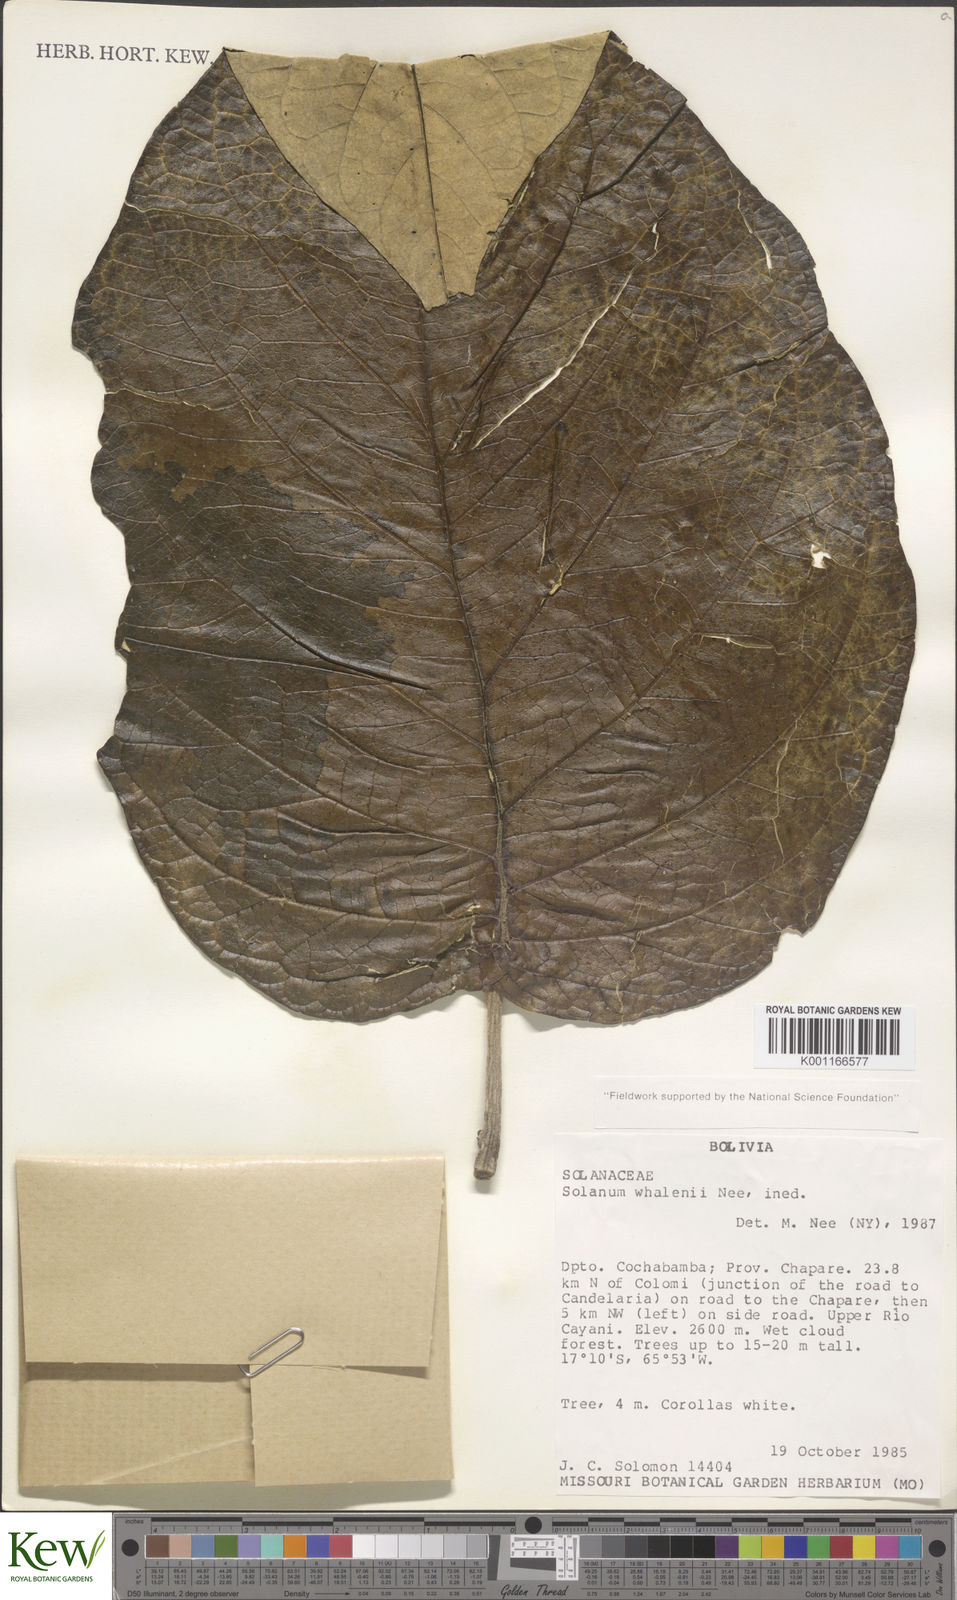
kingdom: Plantae
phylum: Tracheophyta
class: Magnoliopsida
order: Solanales
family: Solanaceae
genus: Solanum
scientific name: Solanum whalenii
